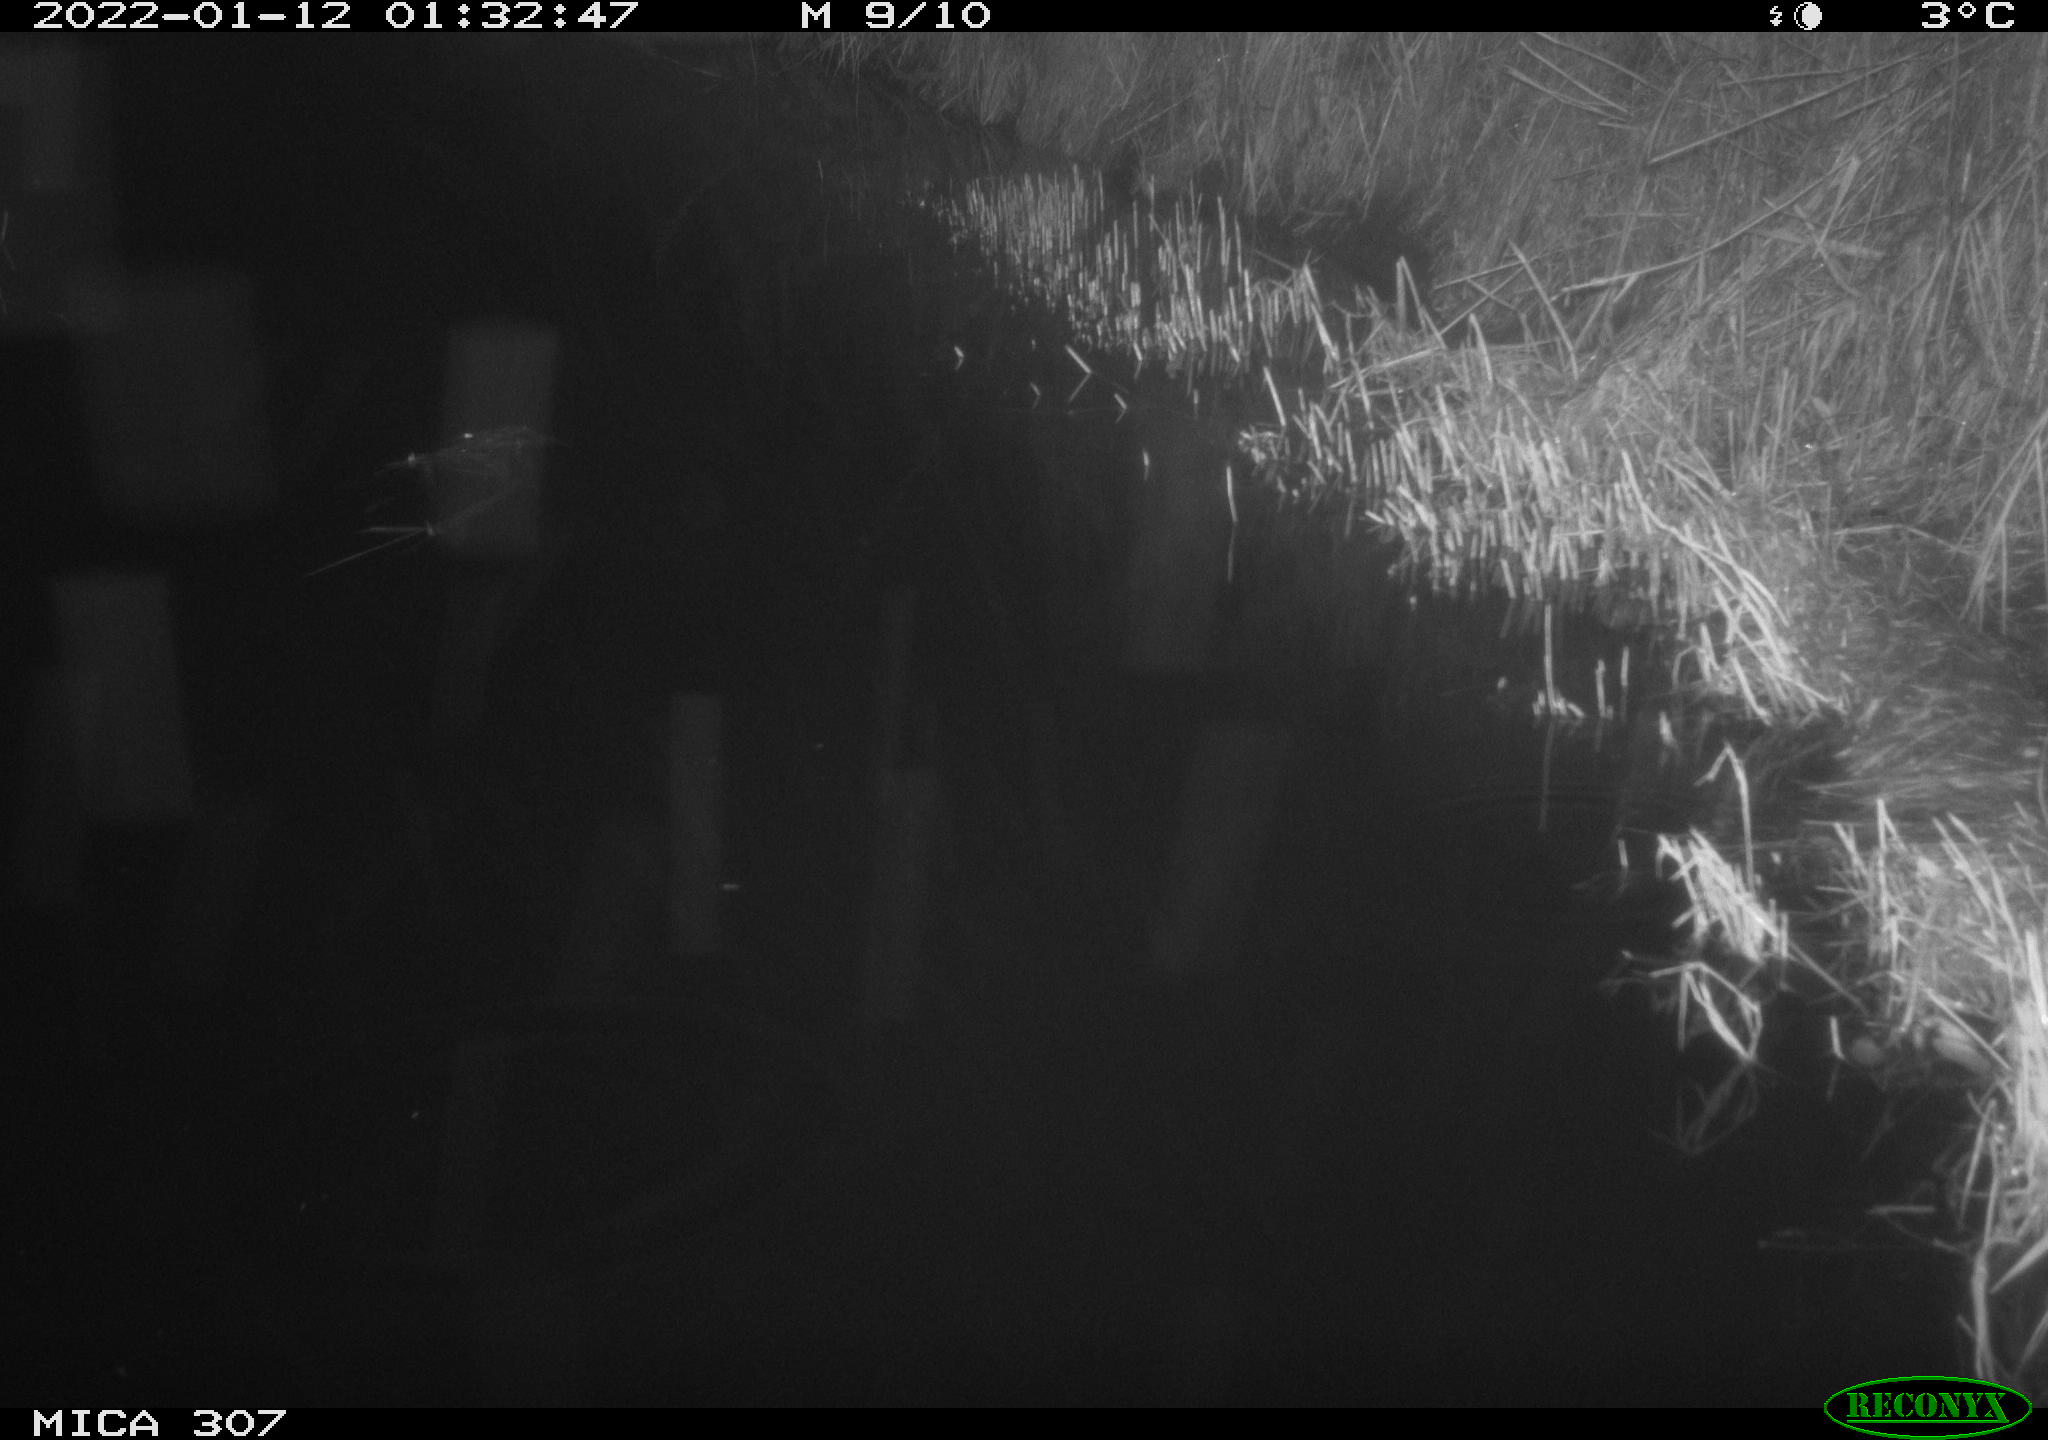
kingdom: Animalia
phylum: Chordata
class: Mammalia
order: Rodentia
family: Muridae
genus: Rattus
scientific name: Rattus norvegicus
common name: Brown rat
